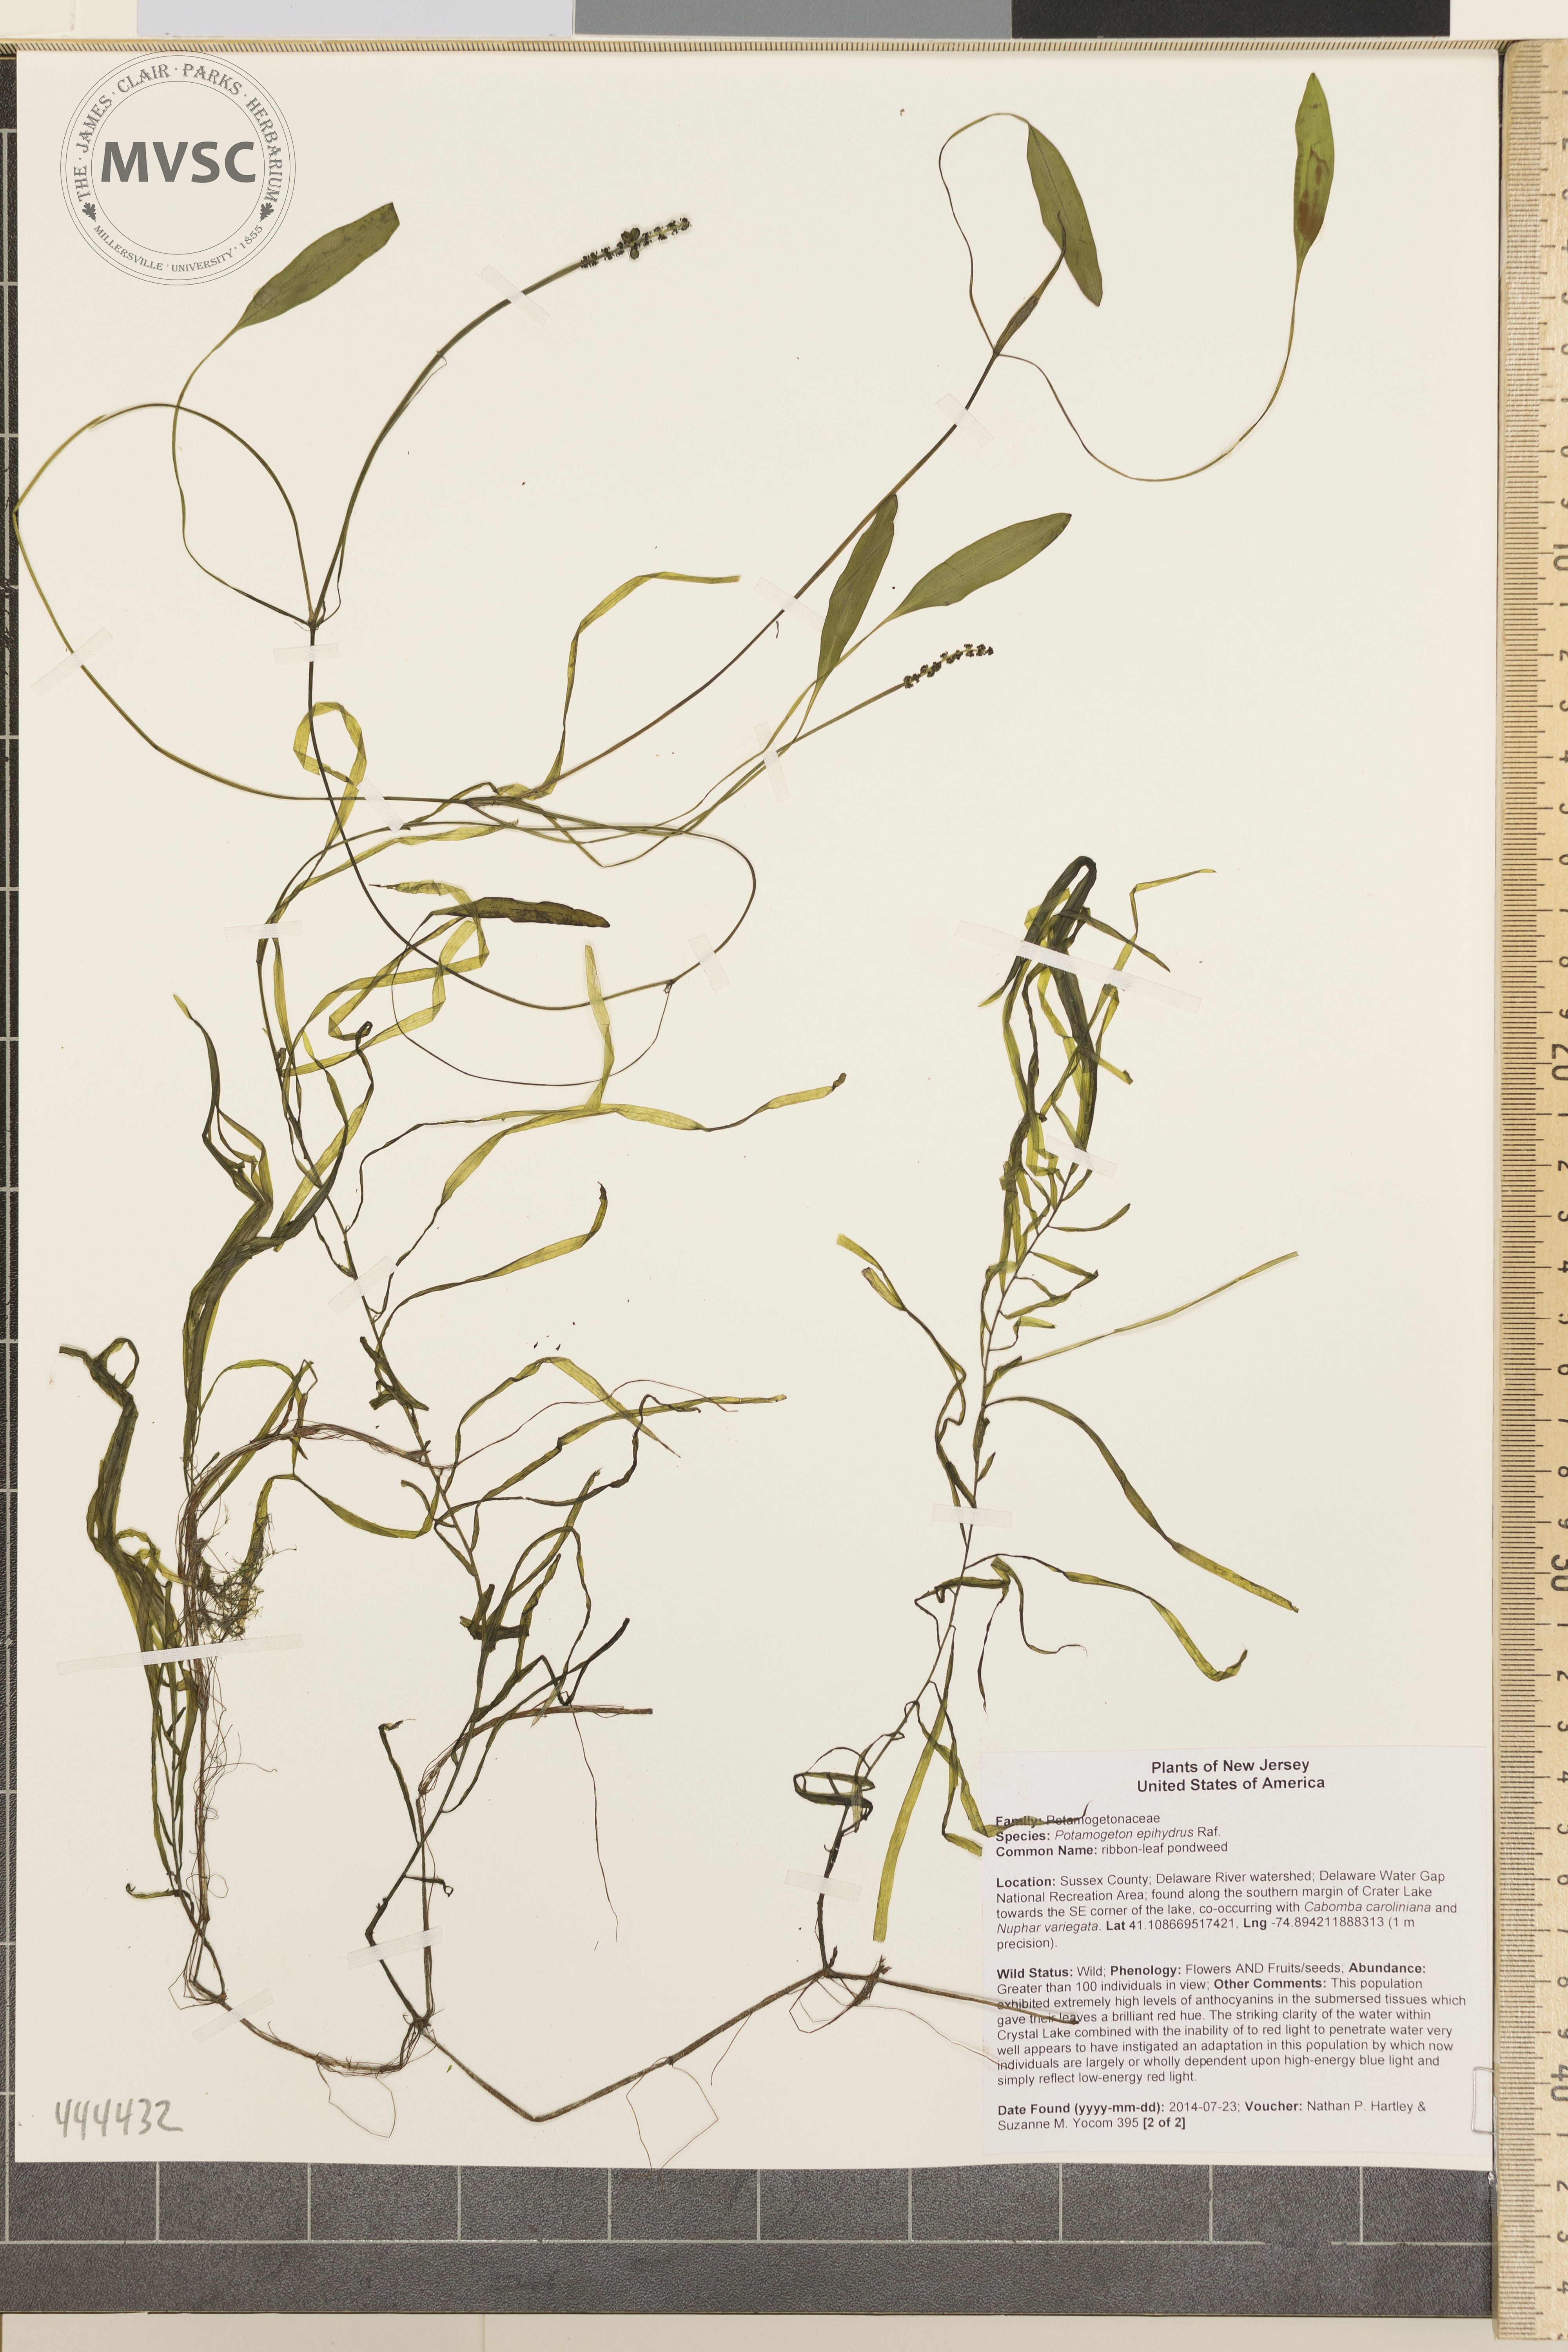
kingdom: Plantae
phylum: Tracheophyta
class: Liliopsida
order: Alismatales
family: Potamogetonaceae
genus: Potamogeton
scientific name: Potamogeton epihydrus
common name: Ribbonleaf pondweed
